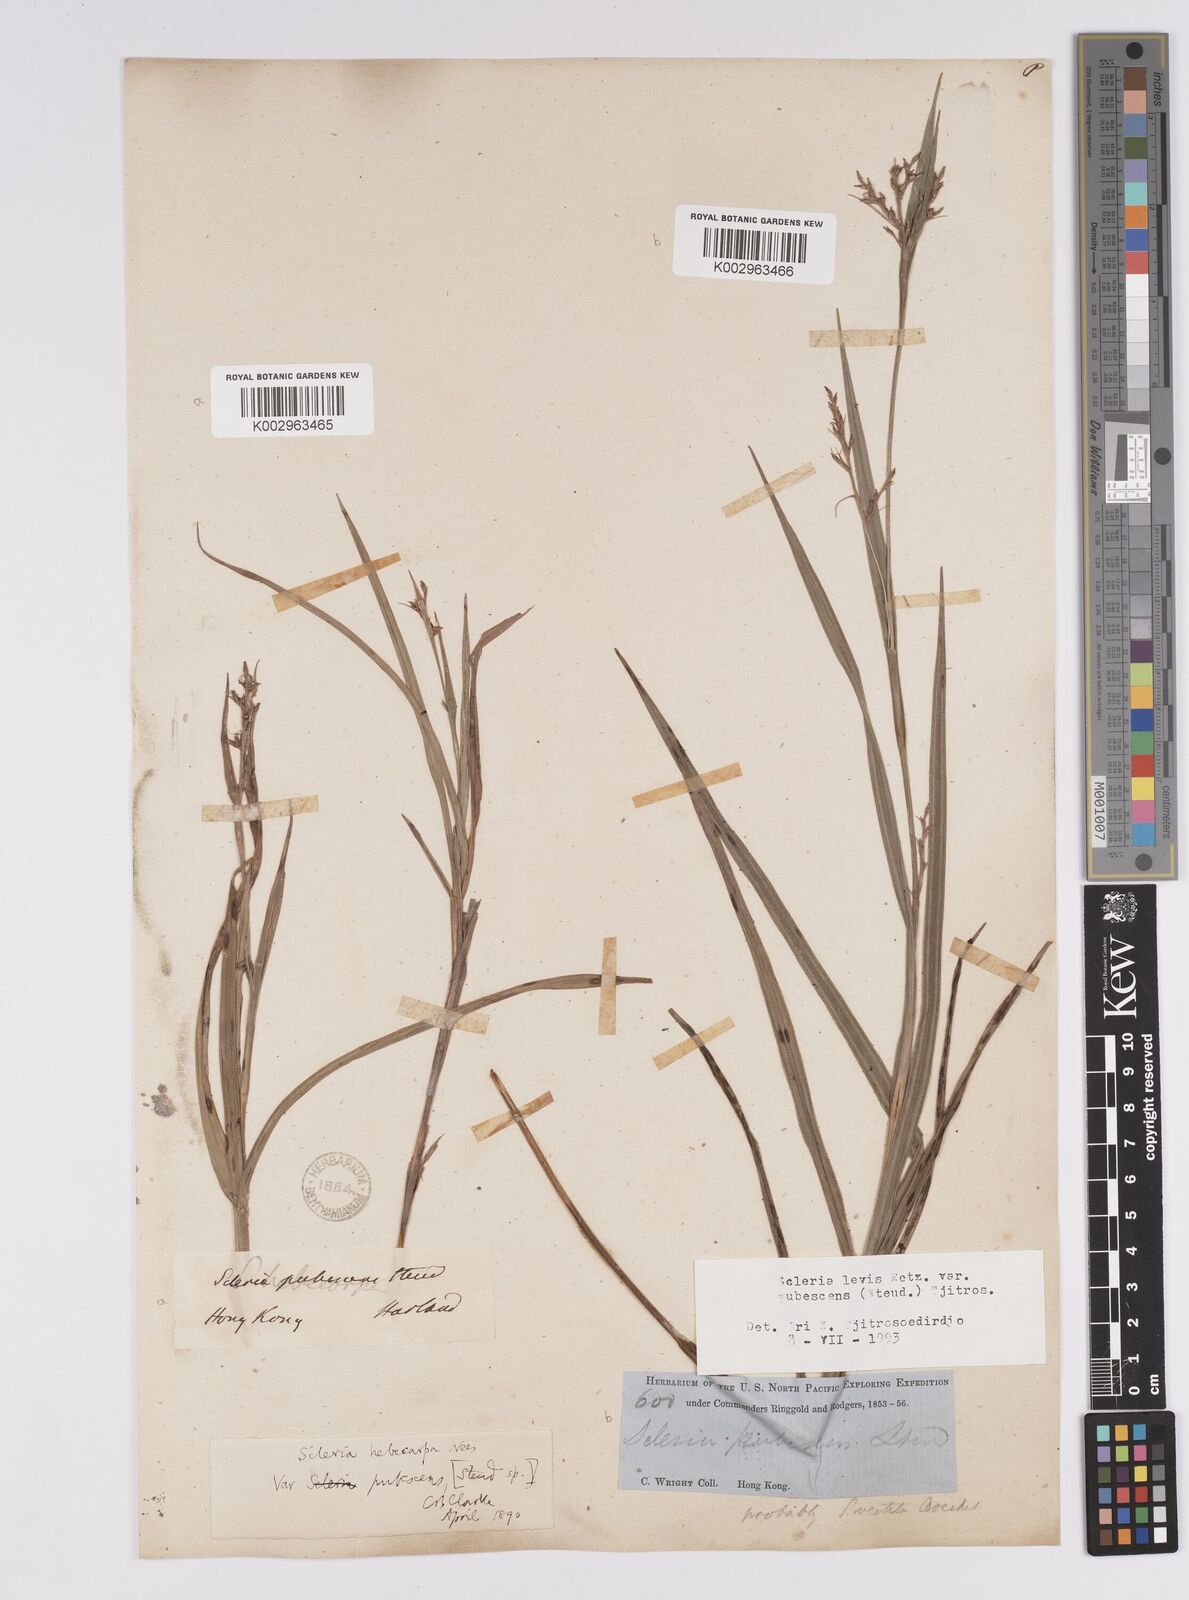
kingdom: Plantae
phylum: Tracheophyta
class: Liliopsida
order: Poales
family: Cyperaceae
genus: Scleria
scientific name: Scleria levis
